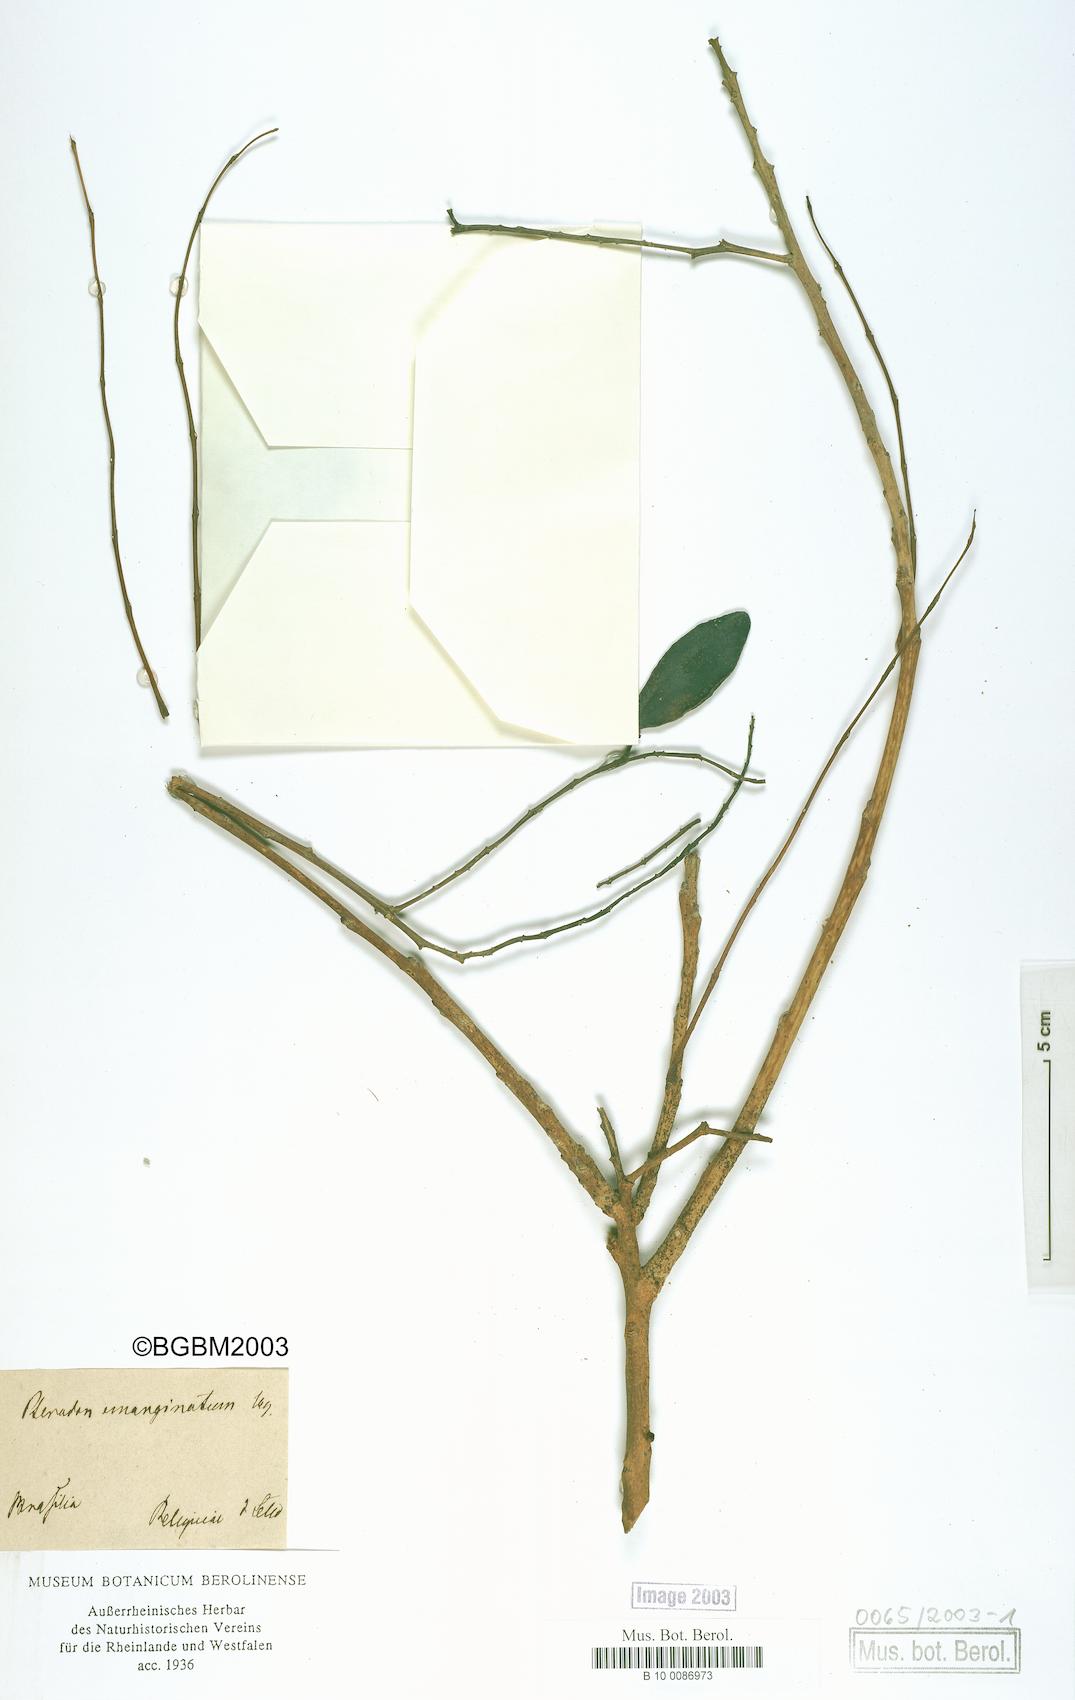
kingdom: Plantae
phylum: Tracheophyta
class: Magnoliopsida
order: Fabales
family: Fabaceae
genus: Pterodon
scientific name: Pterodon emarginatus
